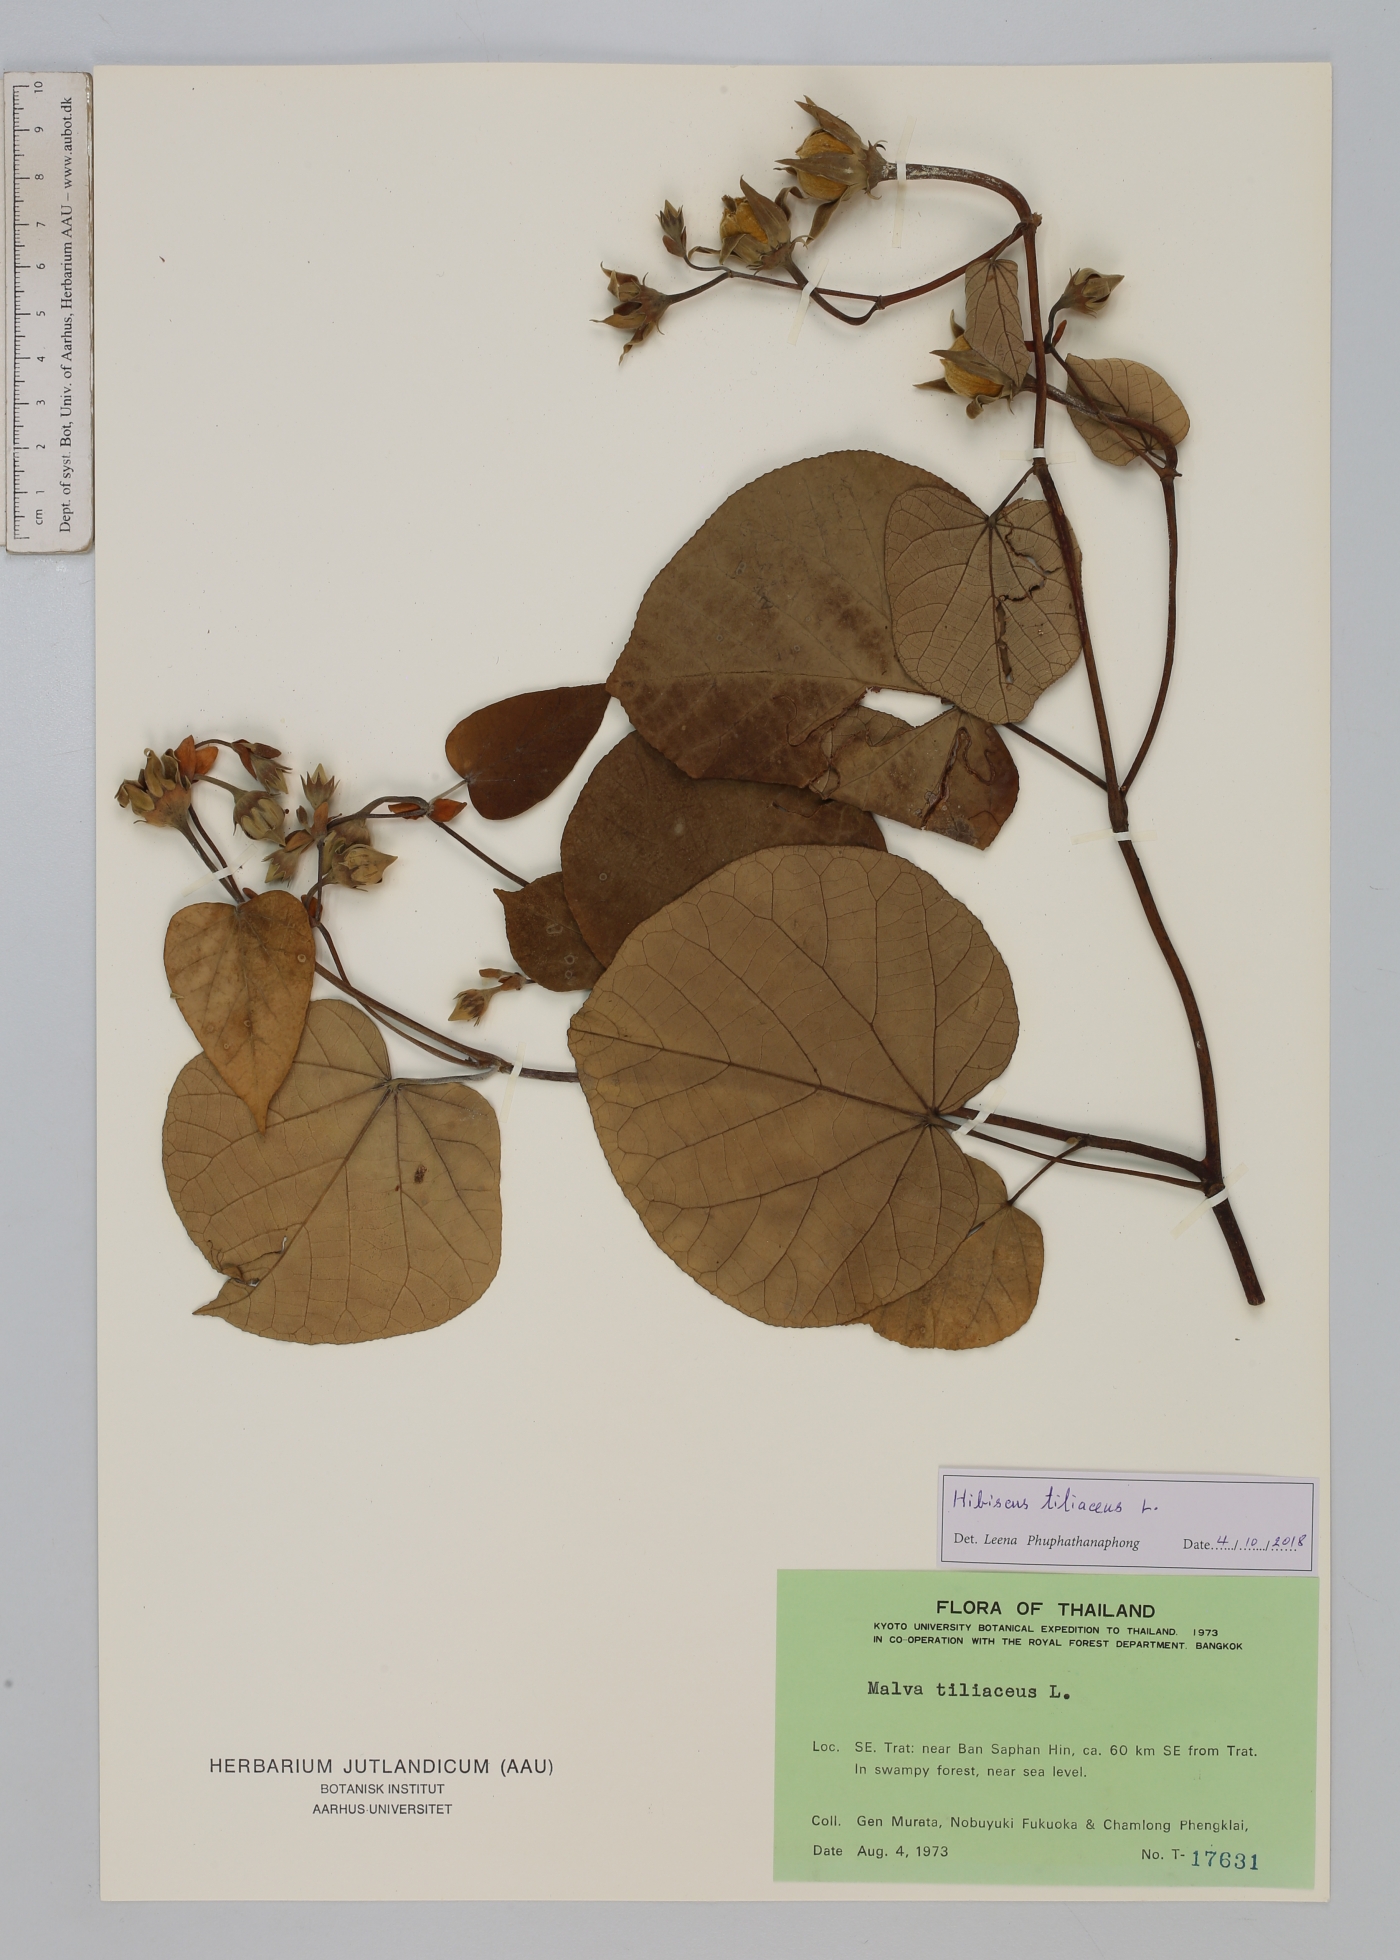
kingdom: Plantae
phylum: Tracheophyta
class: Magnoliopsida
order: Malvales
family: Malvaceae
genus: Talipariti
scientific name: Talipariti tiliaceum
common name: Sea hibiscus
